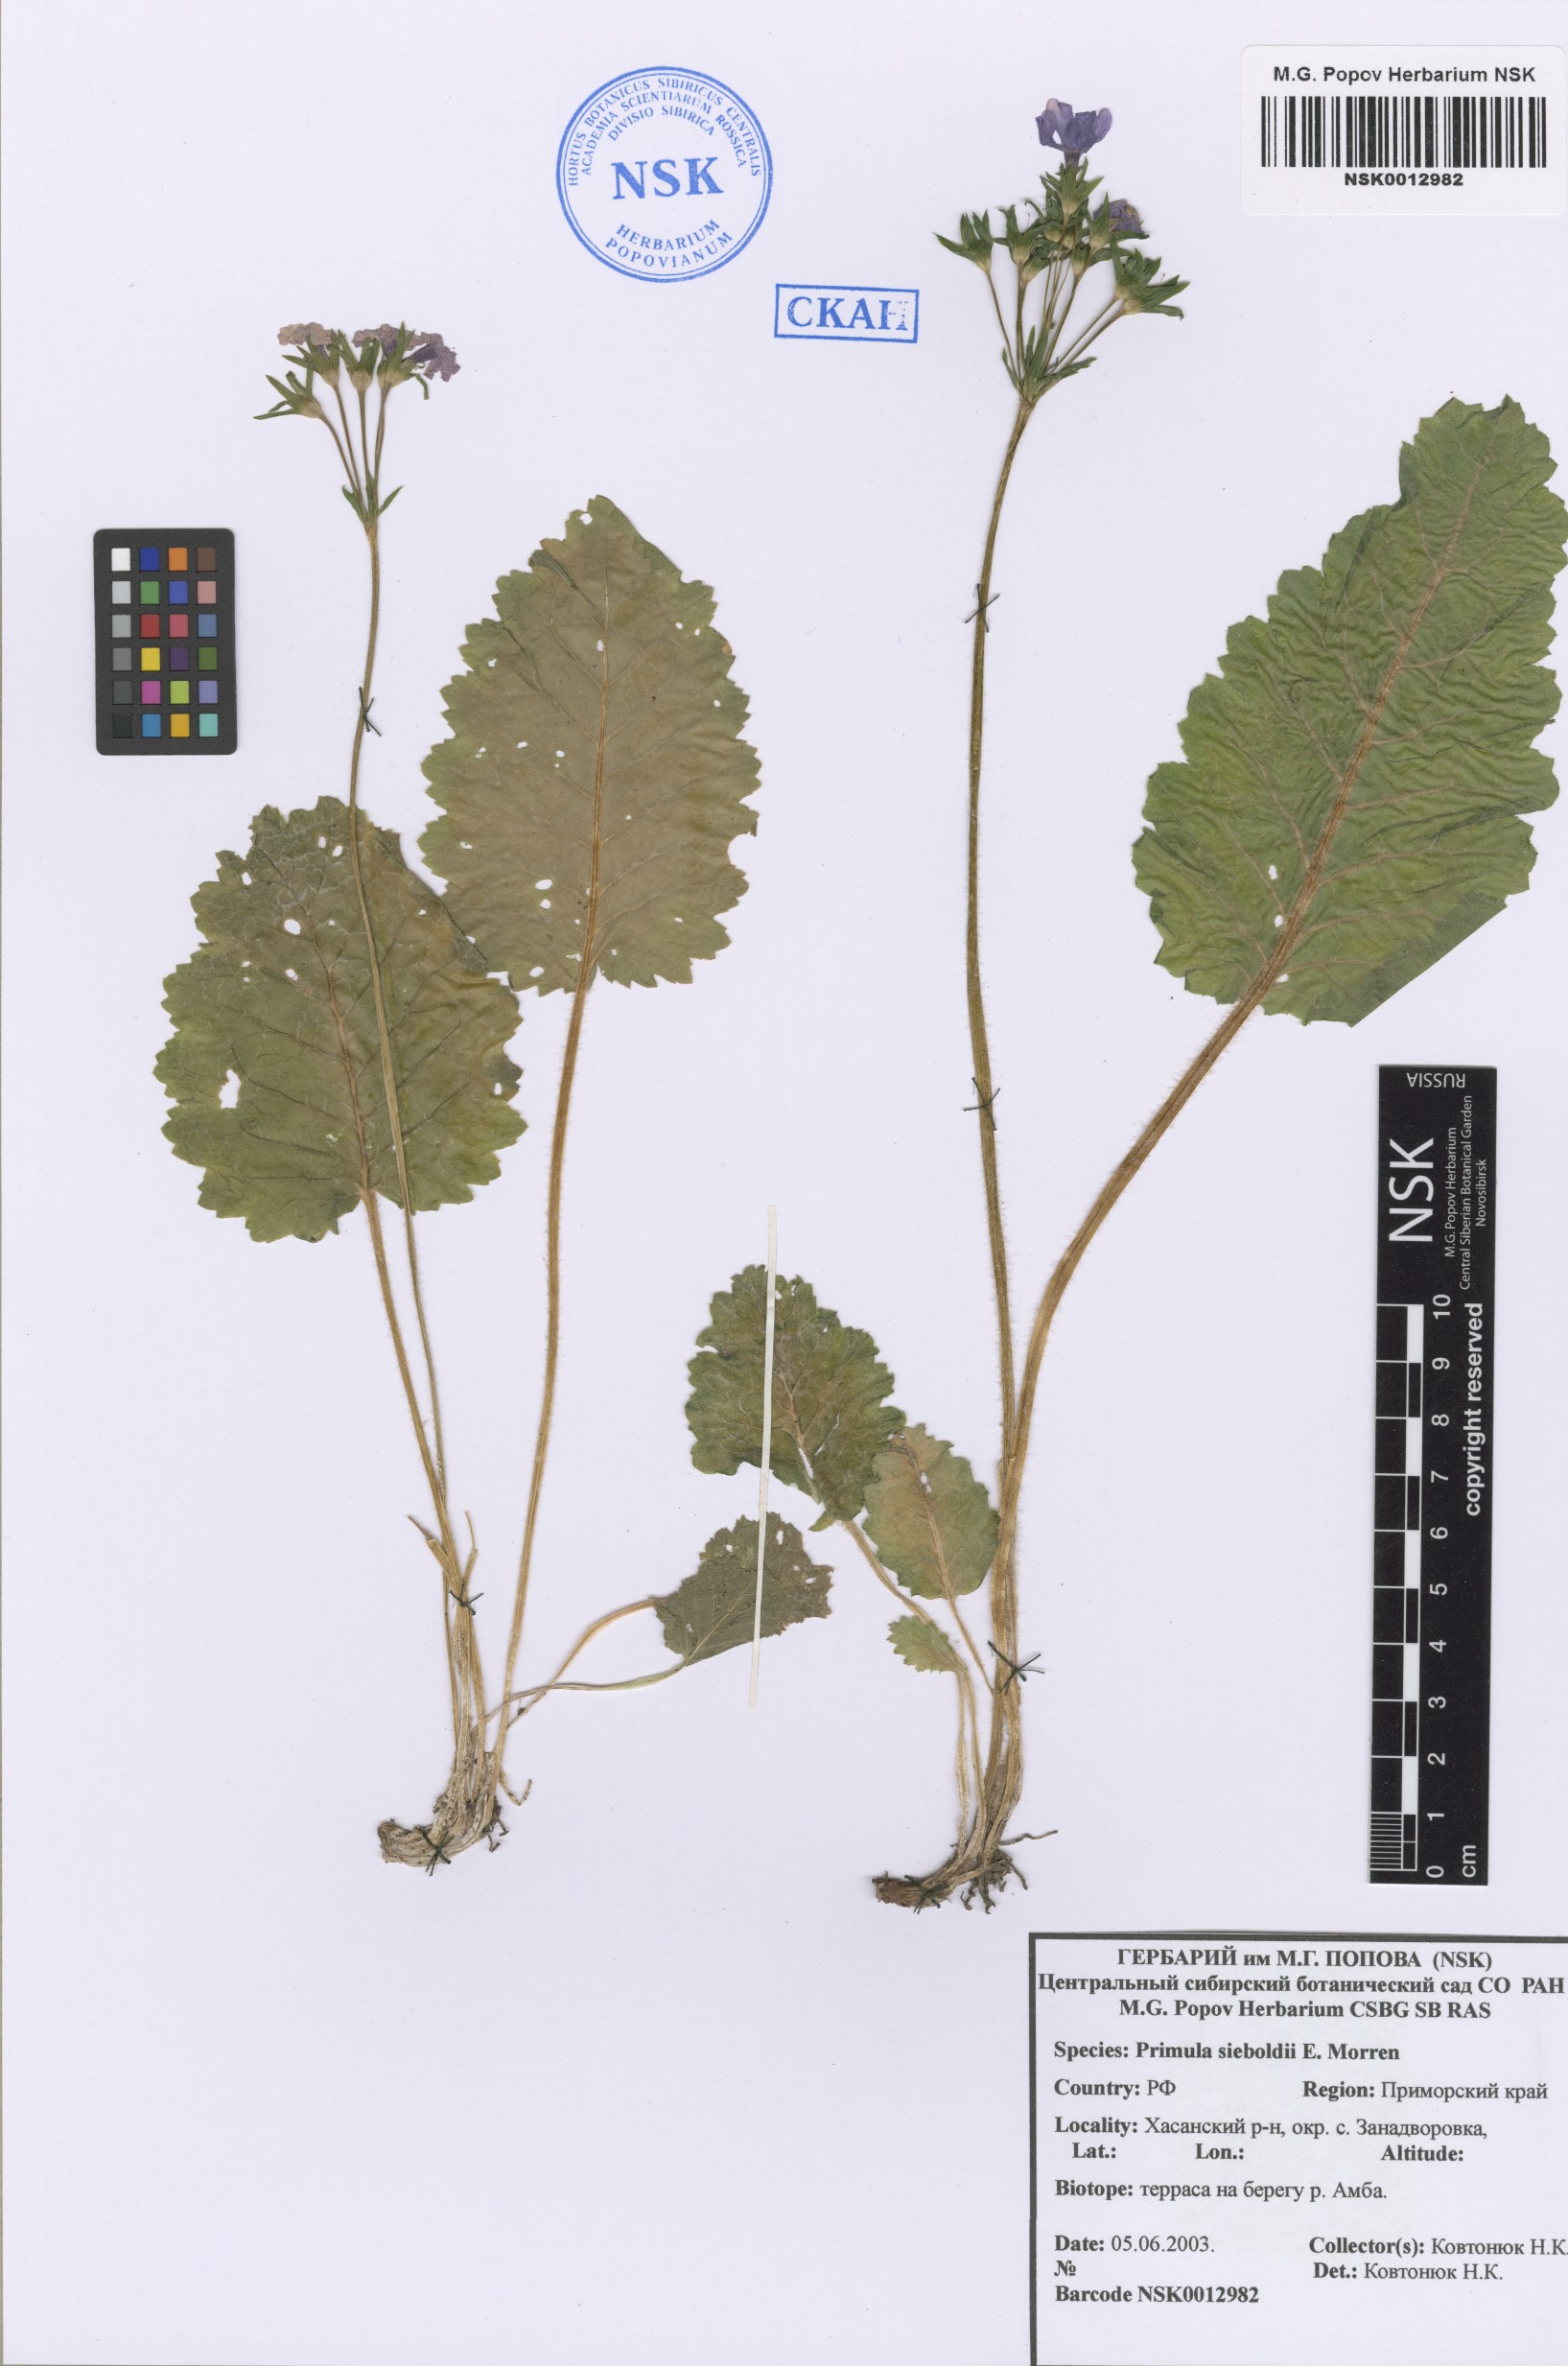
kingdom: Plantae
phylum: Tracheophyta
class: Magnoliopsida
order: Ericales
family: Primulaceae
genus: Primula
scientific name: Primula sieboldii
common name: Japanese primrose
